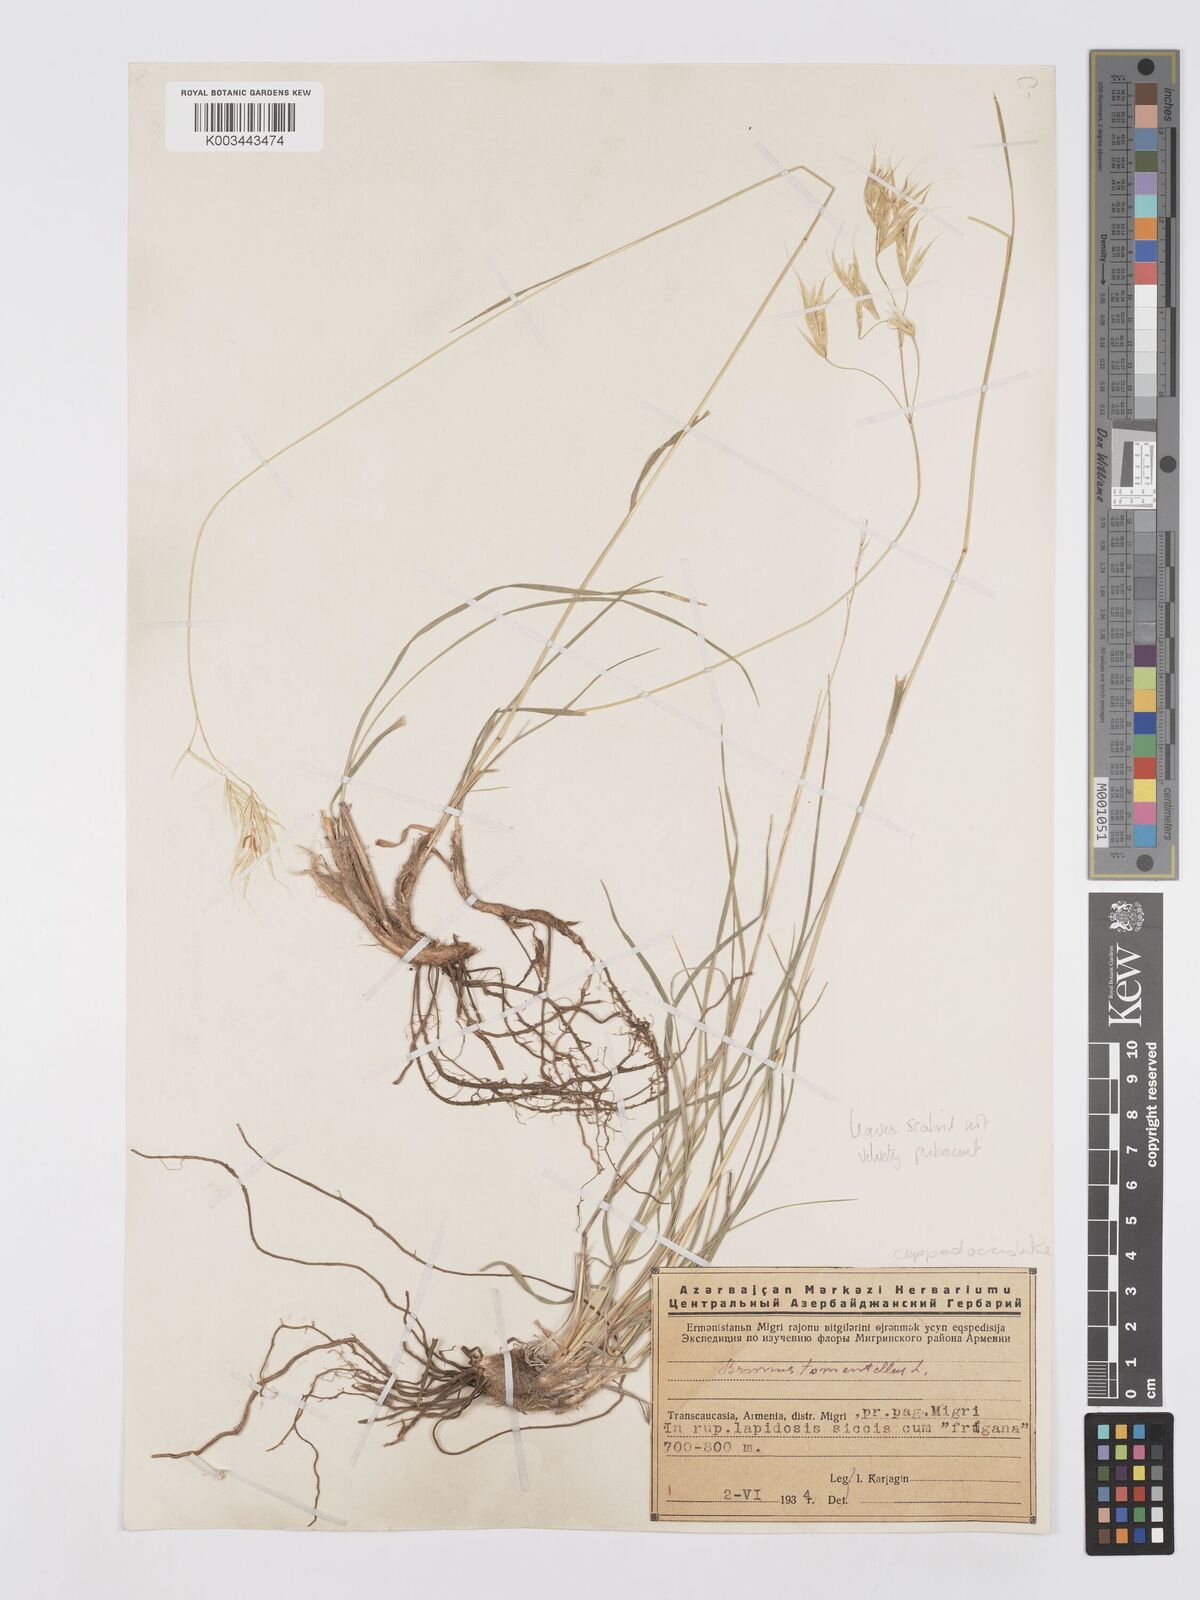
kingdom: Plantae
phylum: Tracheophyta
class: Liliopsida
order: Poales
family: Poaceae
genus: Bromus
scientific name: Bromus tomentellus
